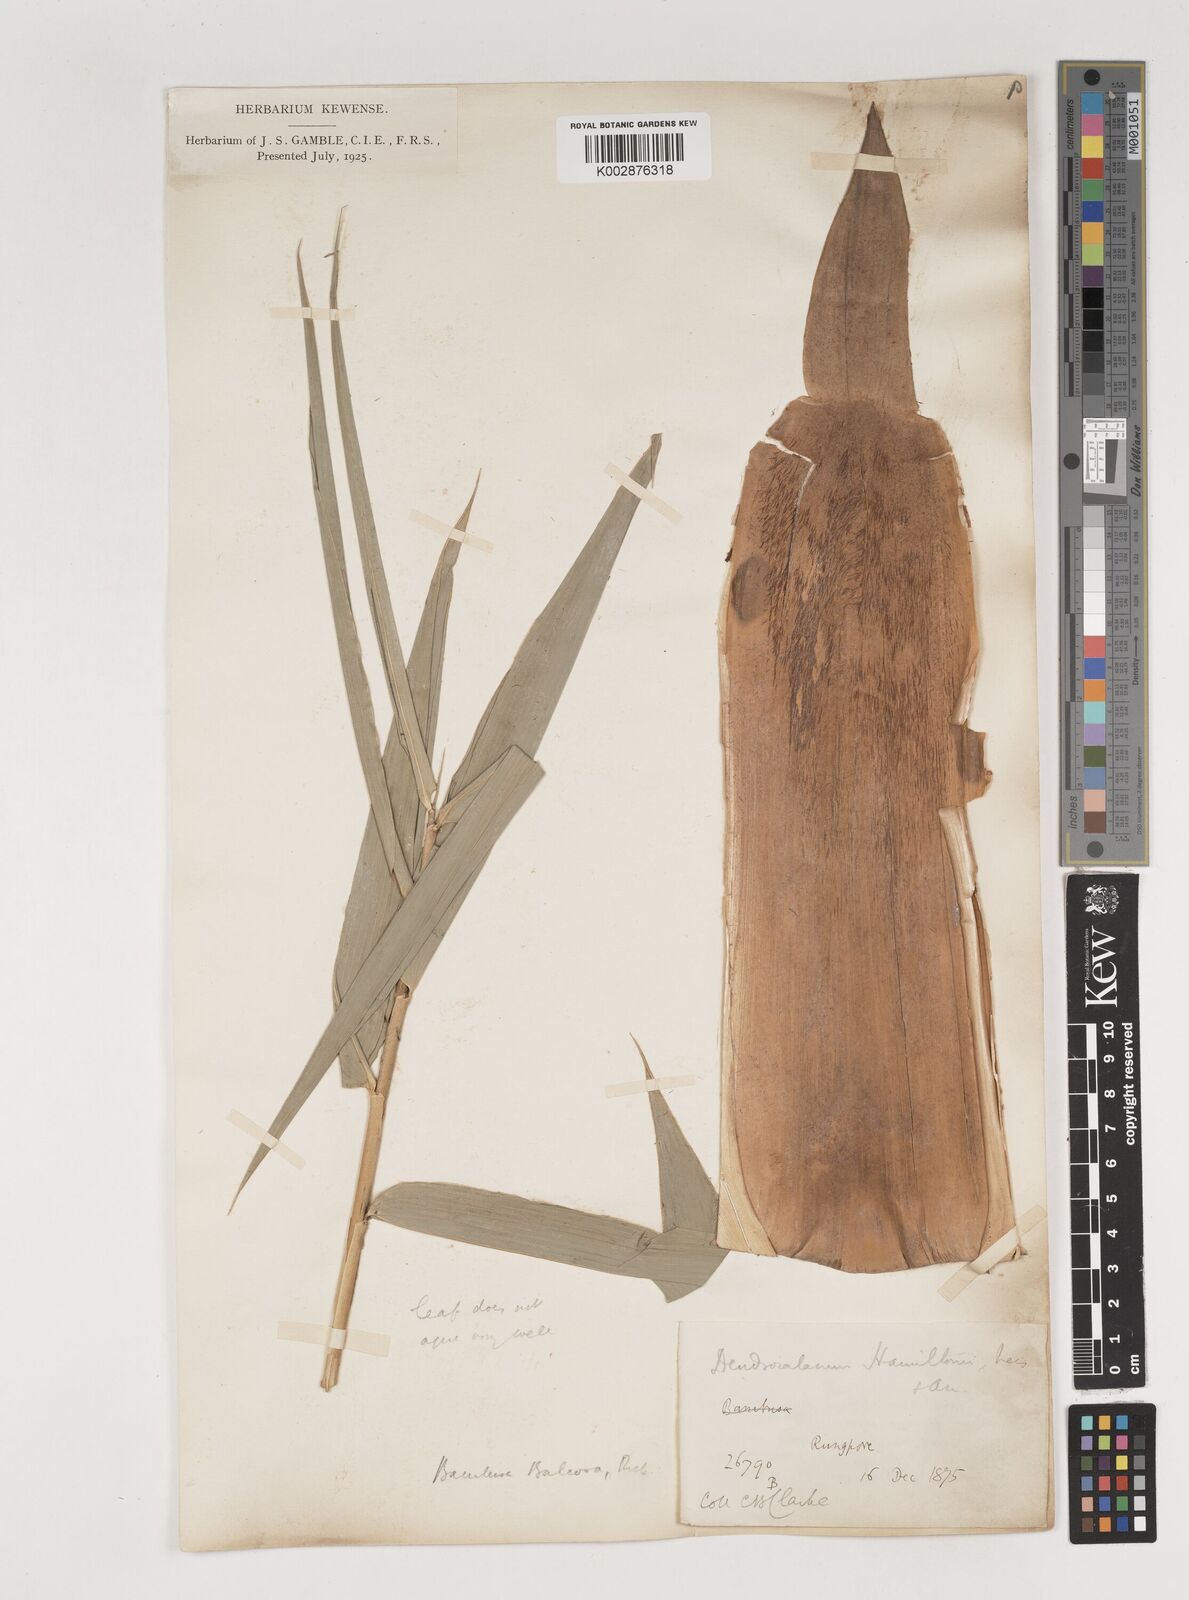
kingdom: Plantae
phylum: Tracheophyta
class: Liliopsida
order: Poales
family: Poaceae
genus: Bambusa
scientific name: Bambusa balcooa
